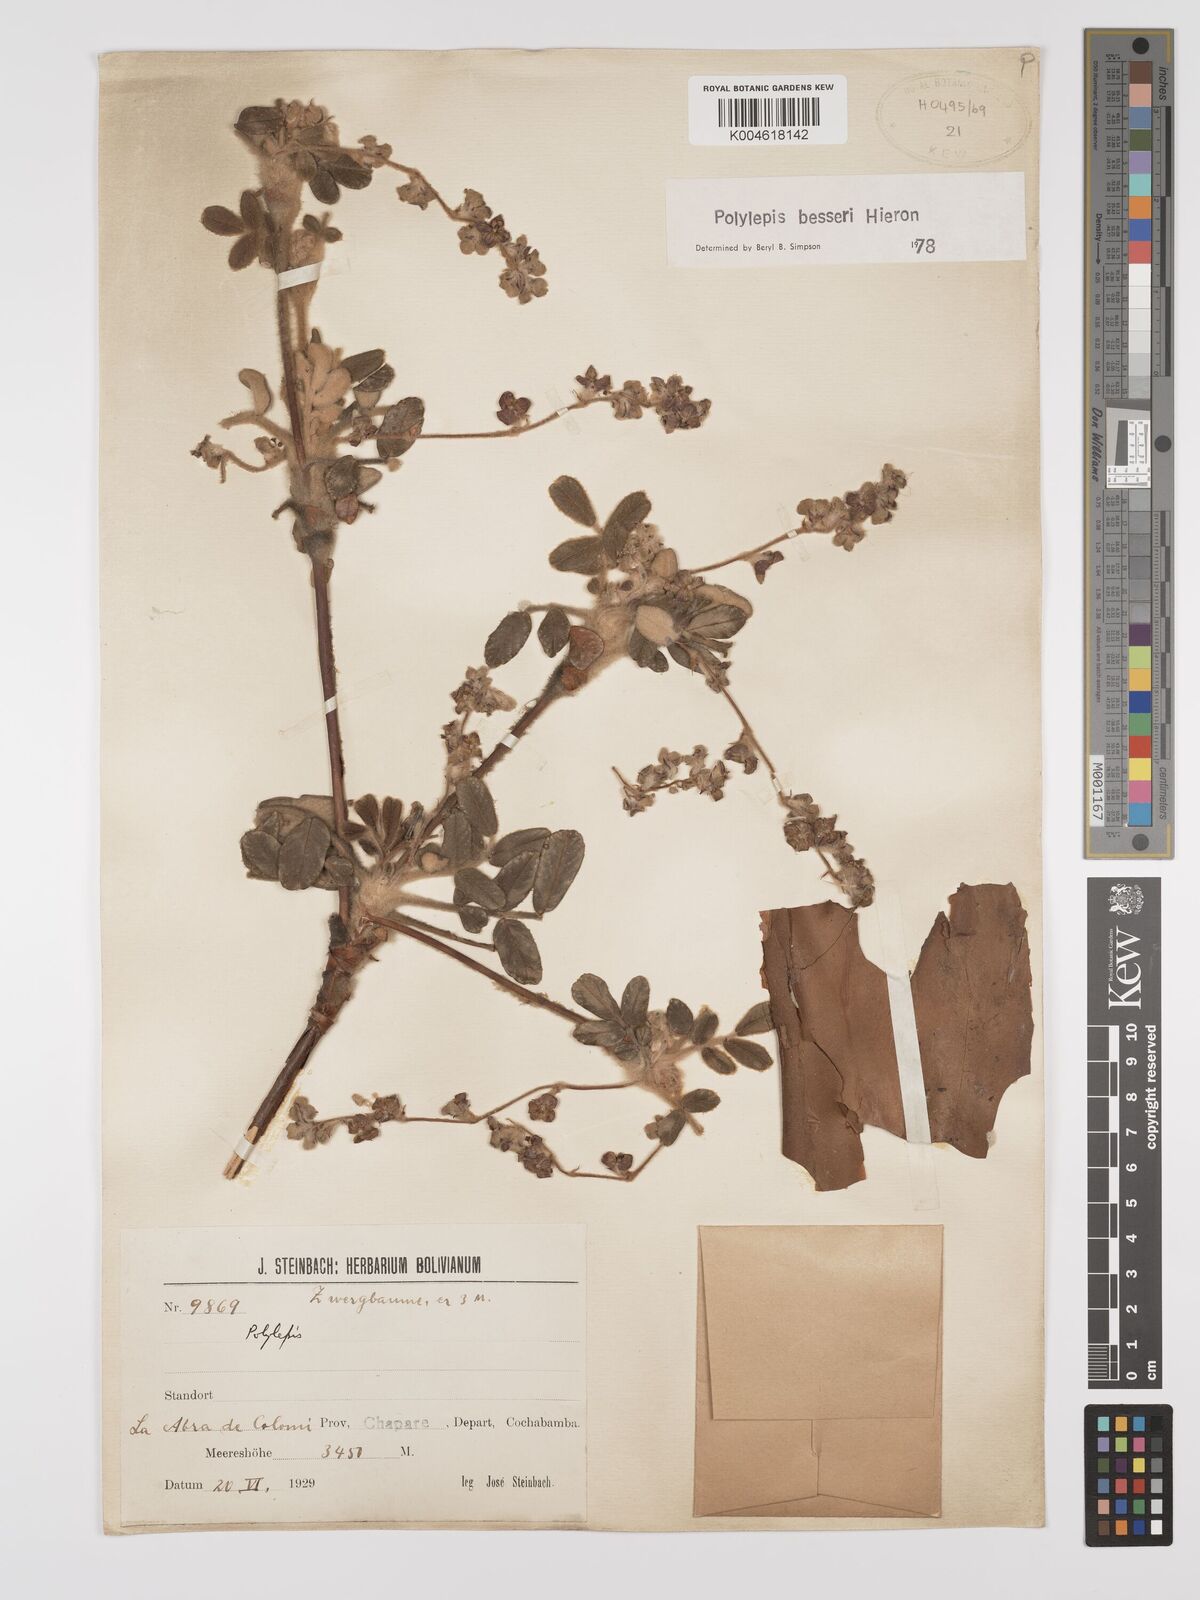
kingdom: Plantae
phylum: Tracheophyta
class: Magnoliopsida
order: Rosales
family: Rosaceae
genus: Polylepis
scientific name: Polylepis
